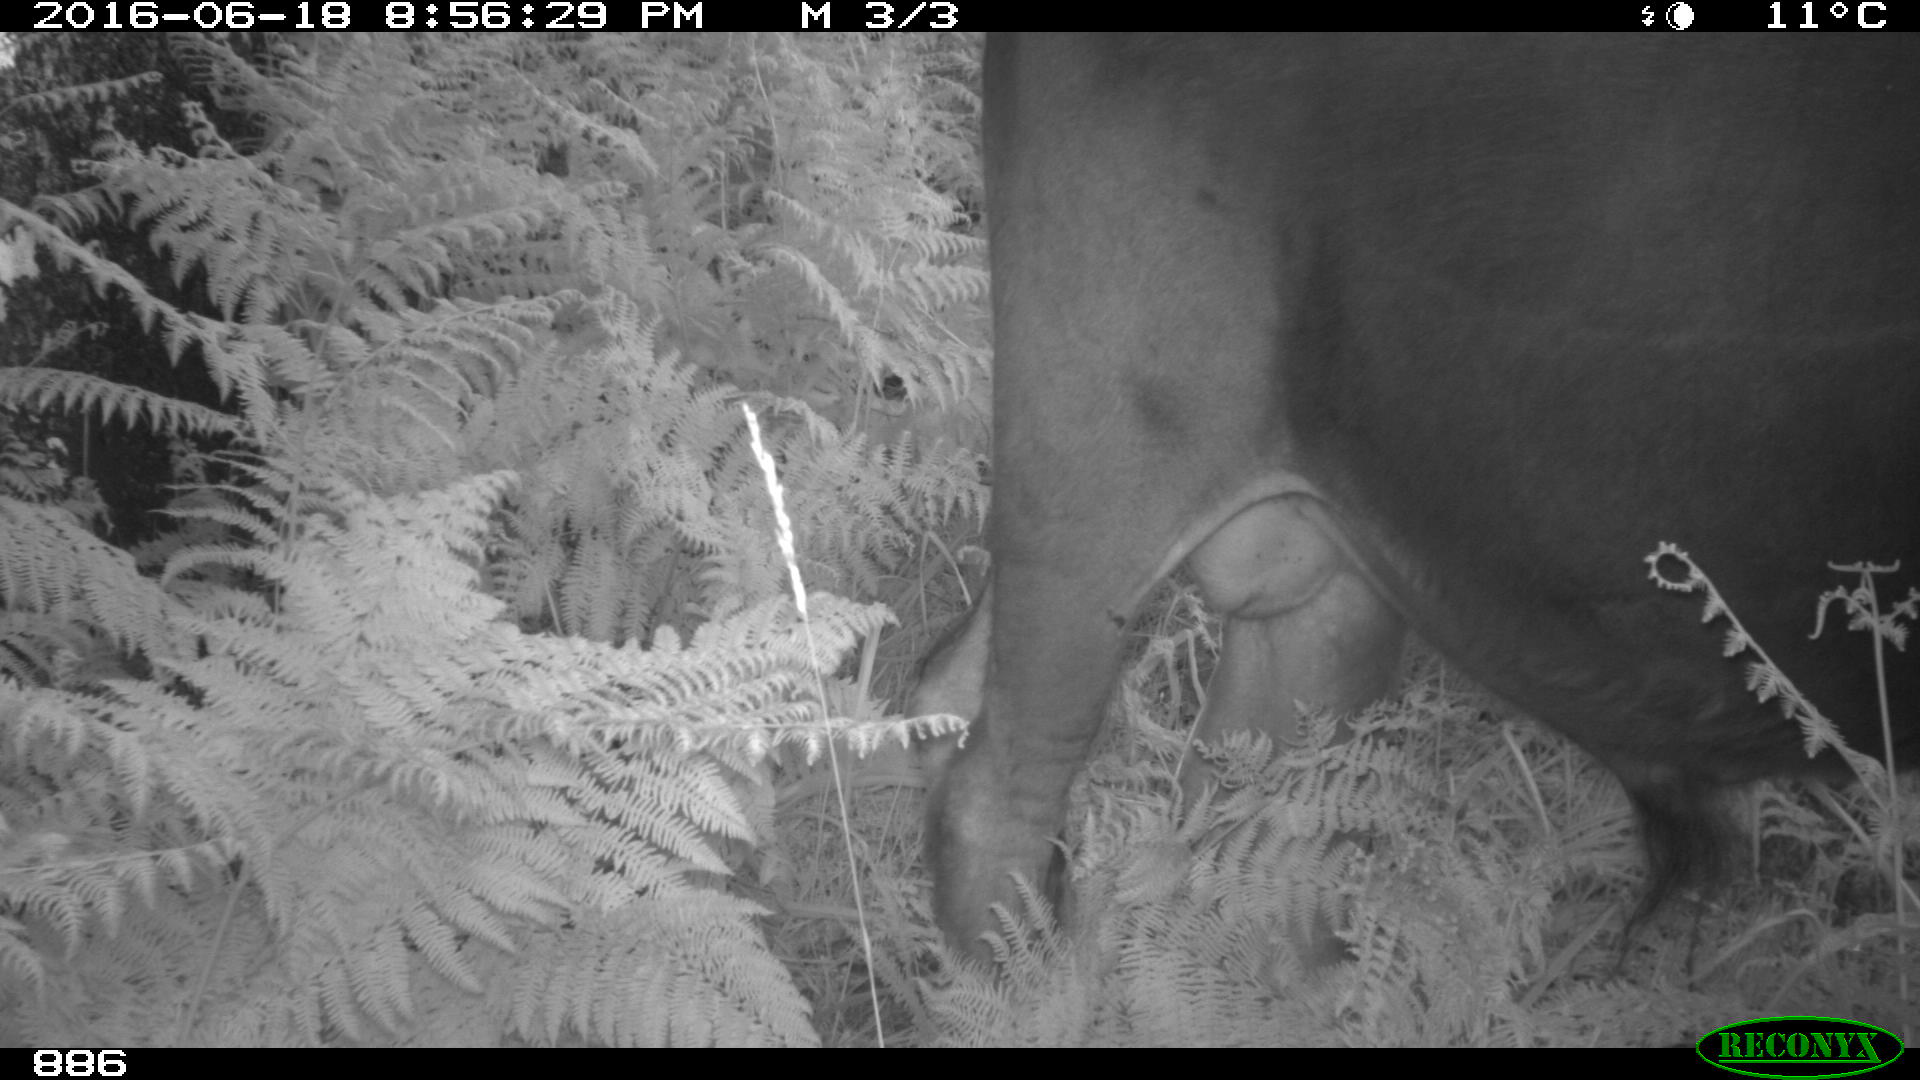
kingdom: Animalia
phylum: Chordata
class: Mammalia
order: Artiodactyla
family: Bovidae
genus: Bos
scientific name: Bos taurus
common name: Domesticated cattle
